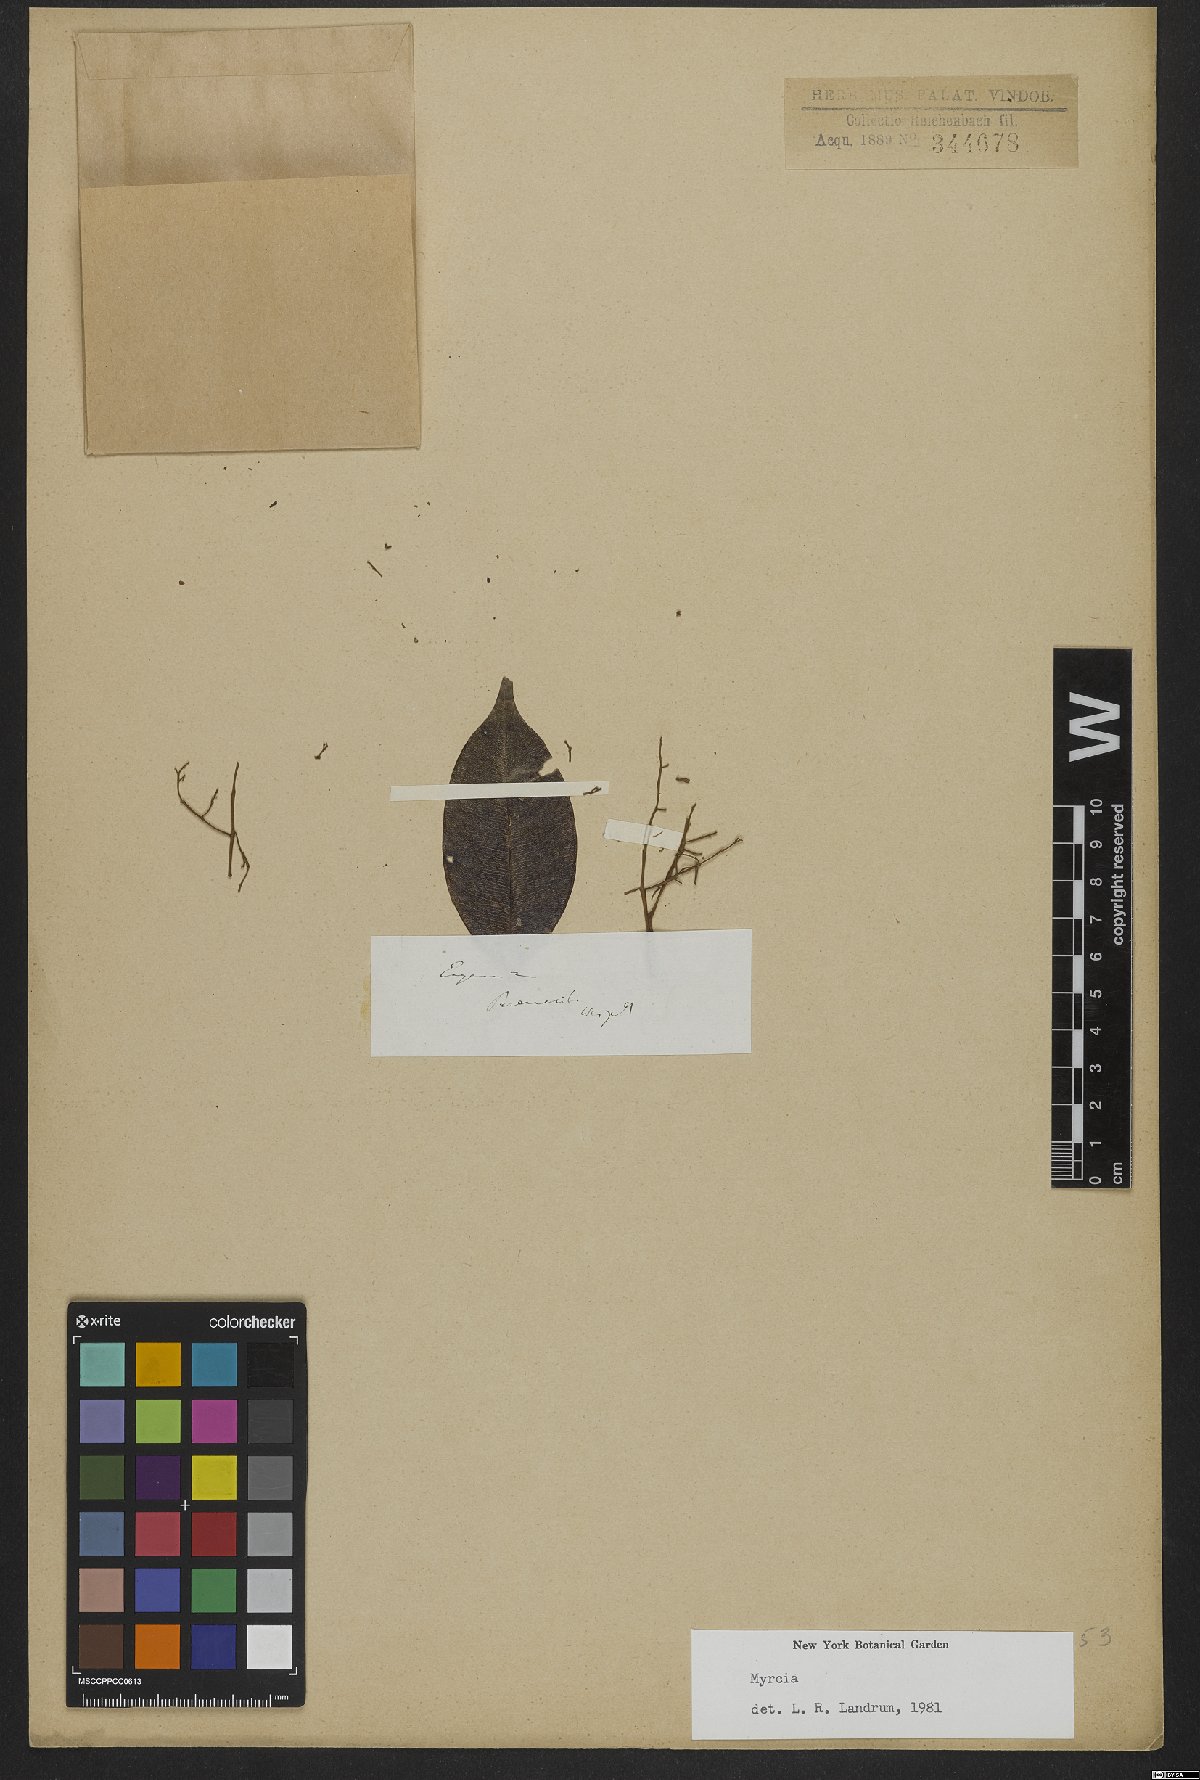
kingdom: Plantae
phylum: Tracheophyta
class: Magnoliopsida
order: Myrtales
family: Myrtaceae
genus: Myrcia
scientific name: Myrcia
